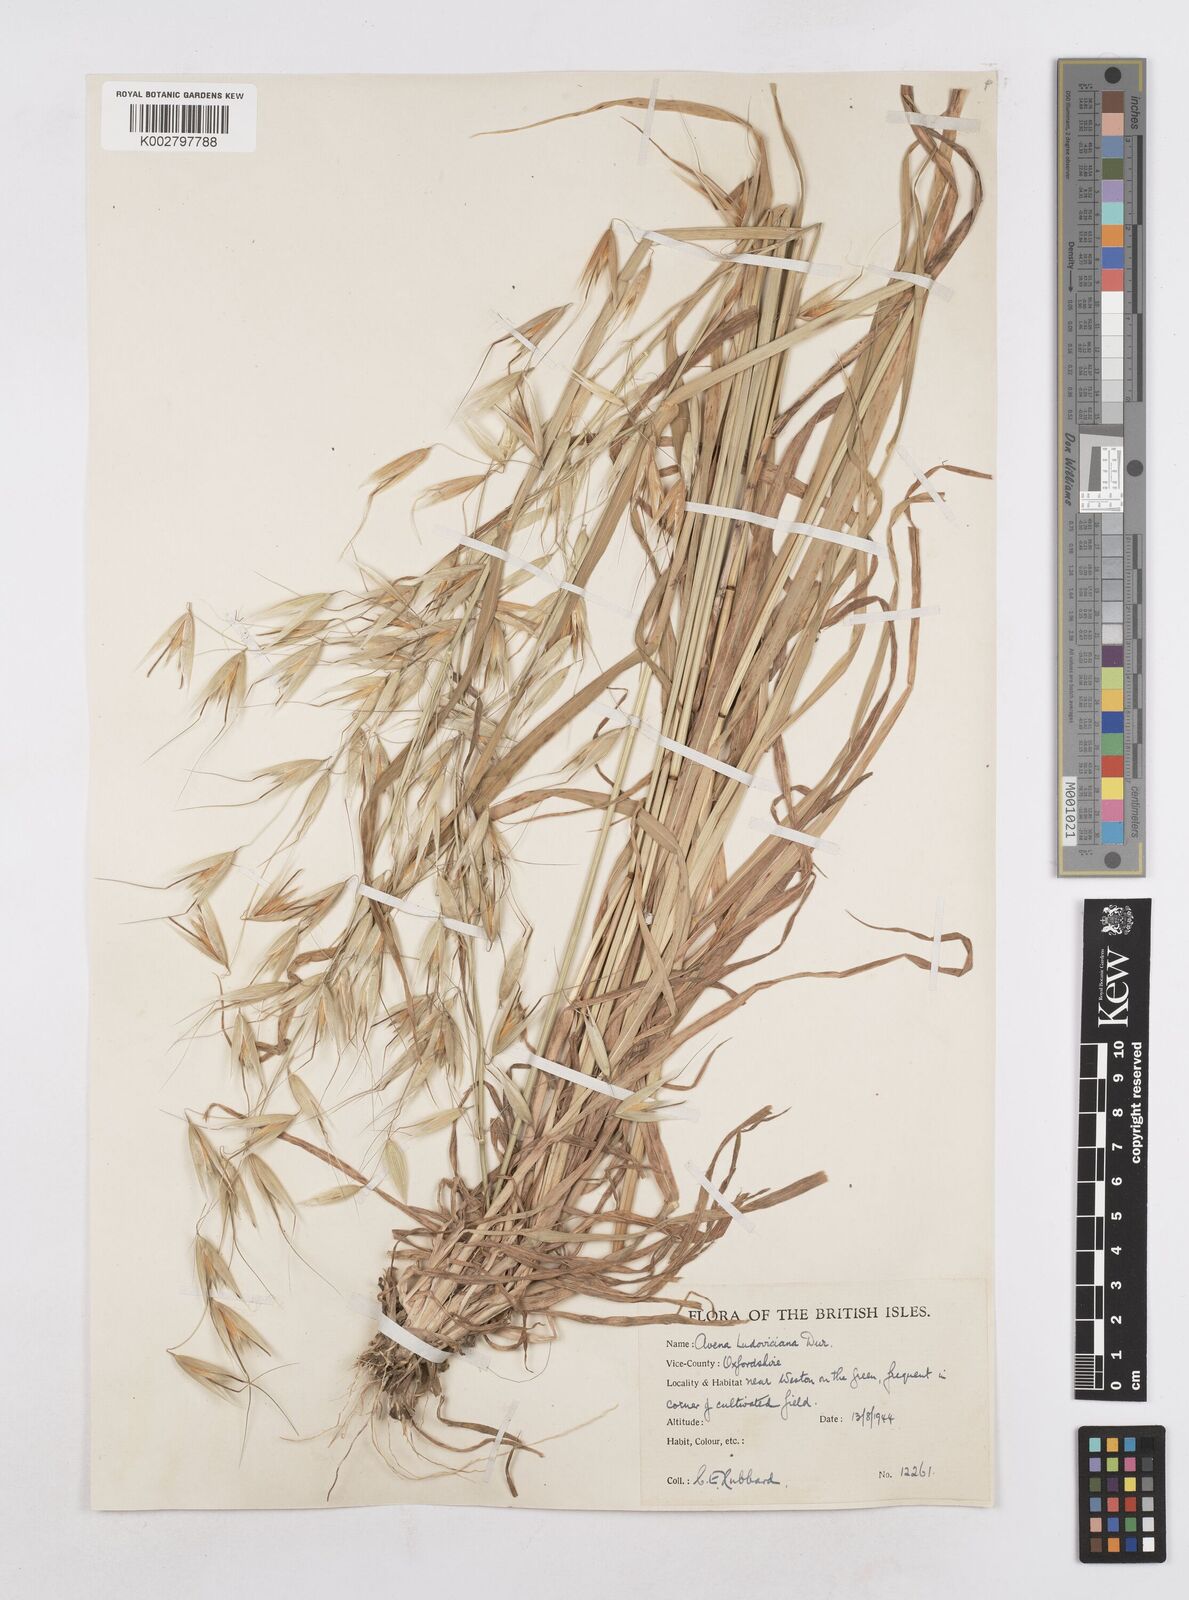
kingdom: Plantae
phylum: Tracheophyta
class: Liliopsida
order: Poales
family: Poaceae
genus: Avena
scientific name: Avena sterilis
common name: Animated oat
